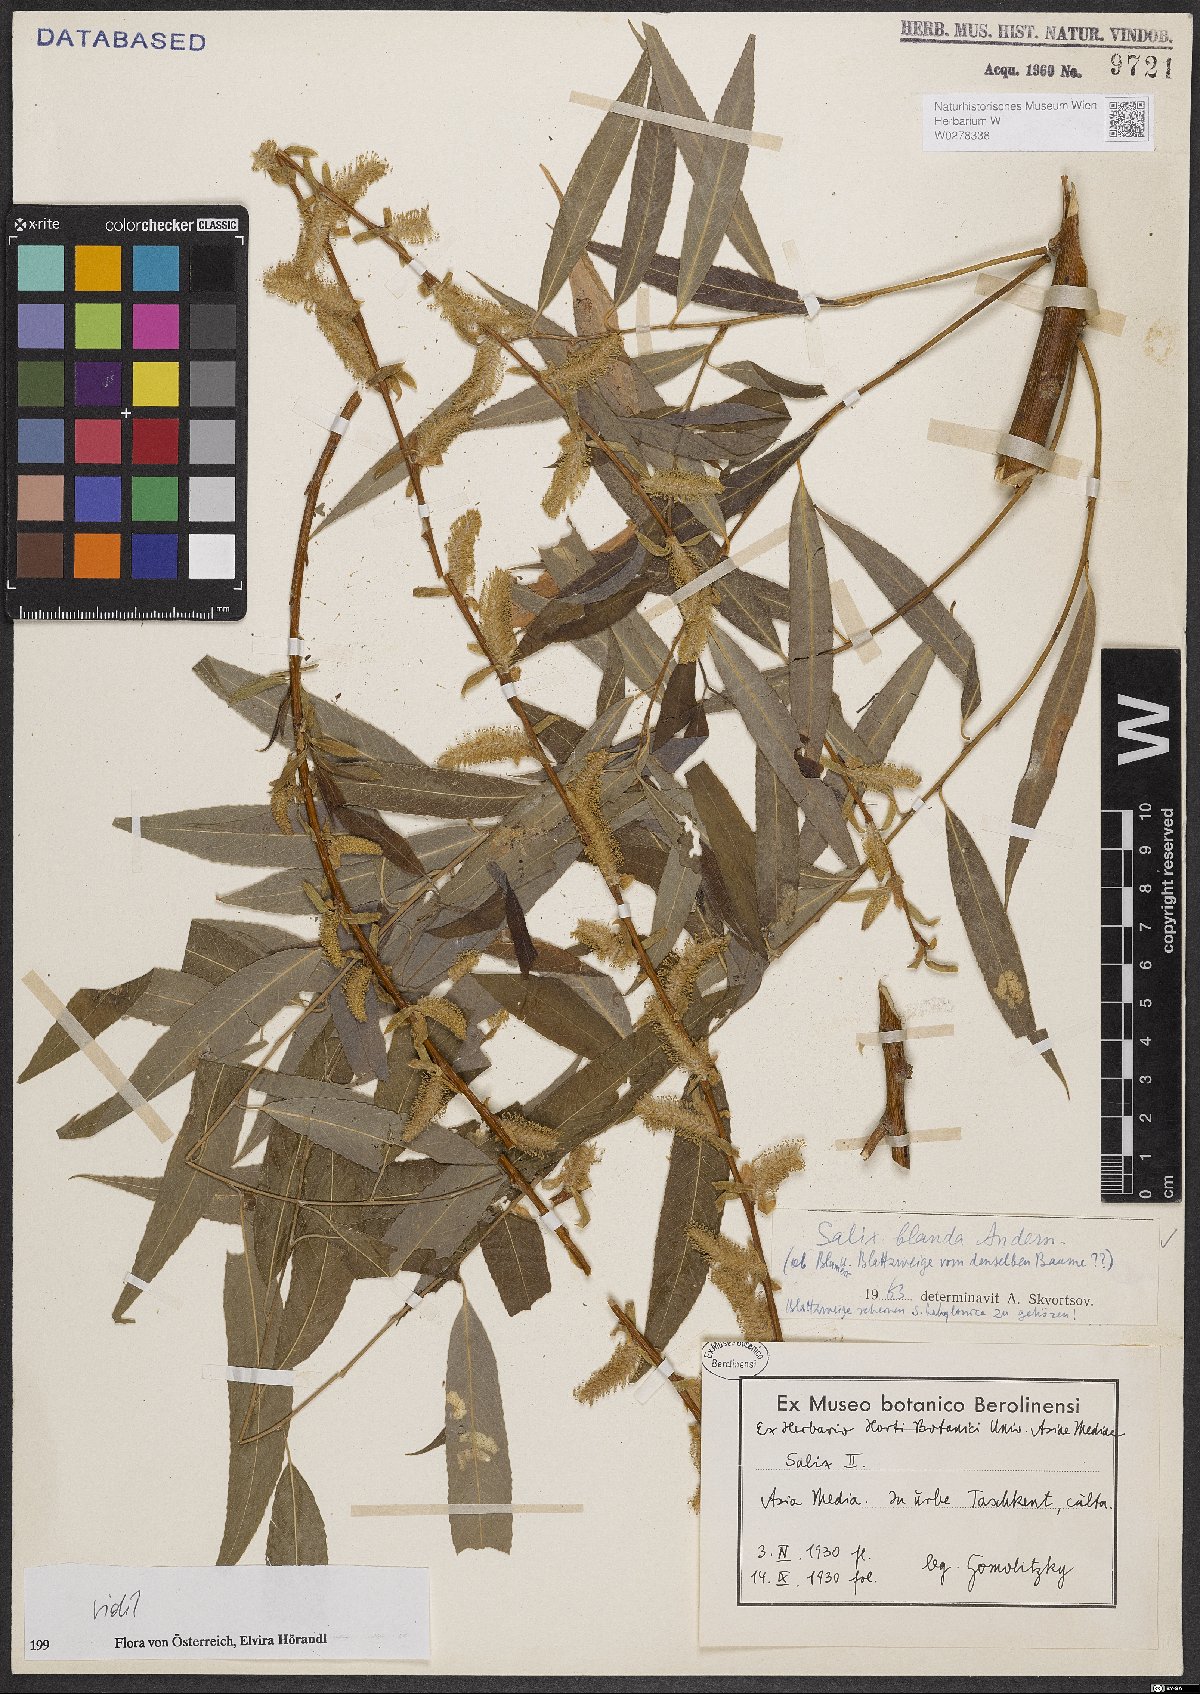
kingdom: Plantae
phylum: Tracheophyta
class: Magnoliopsida
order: Malpighiales
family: Salicaceae
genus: Salix
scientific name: Salix pendulina
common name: Wisconsin weeping willow
